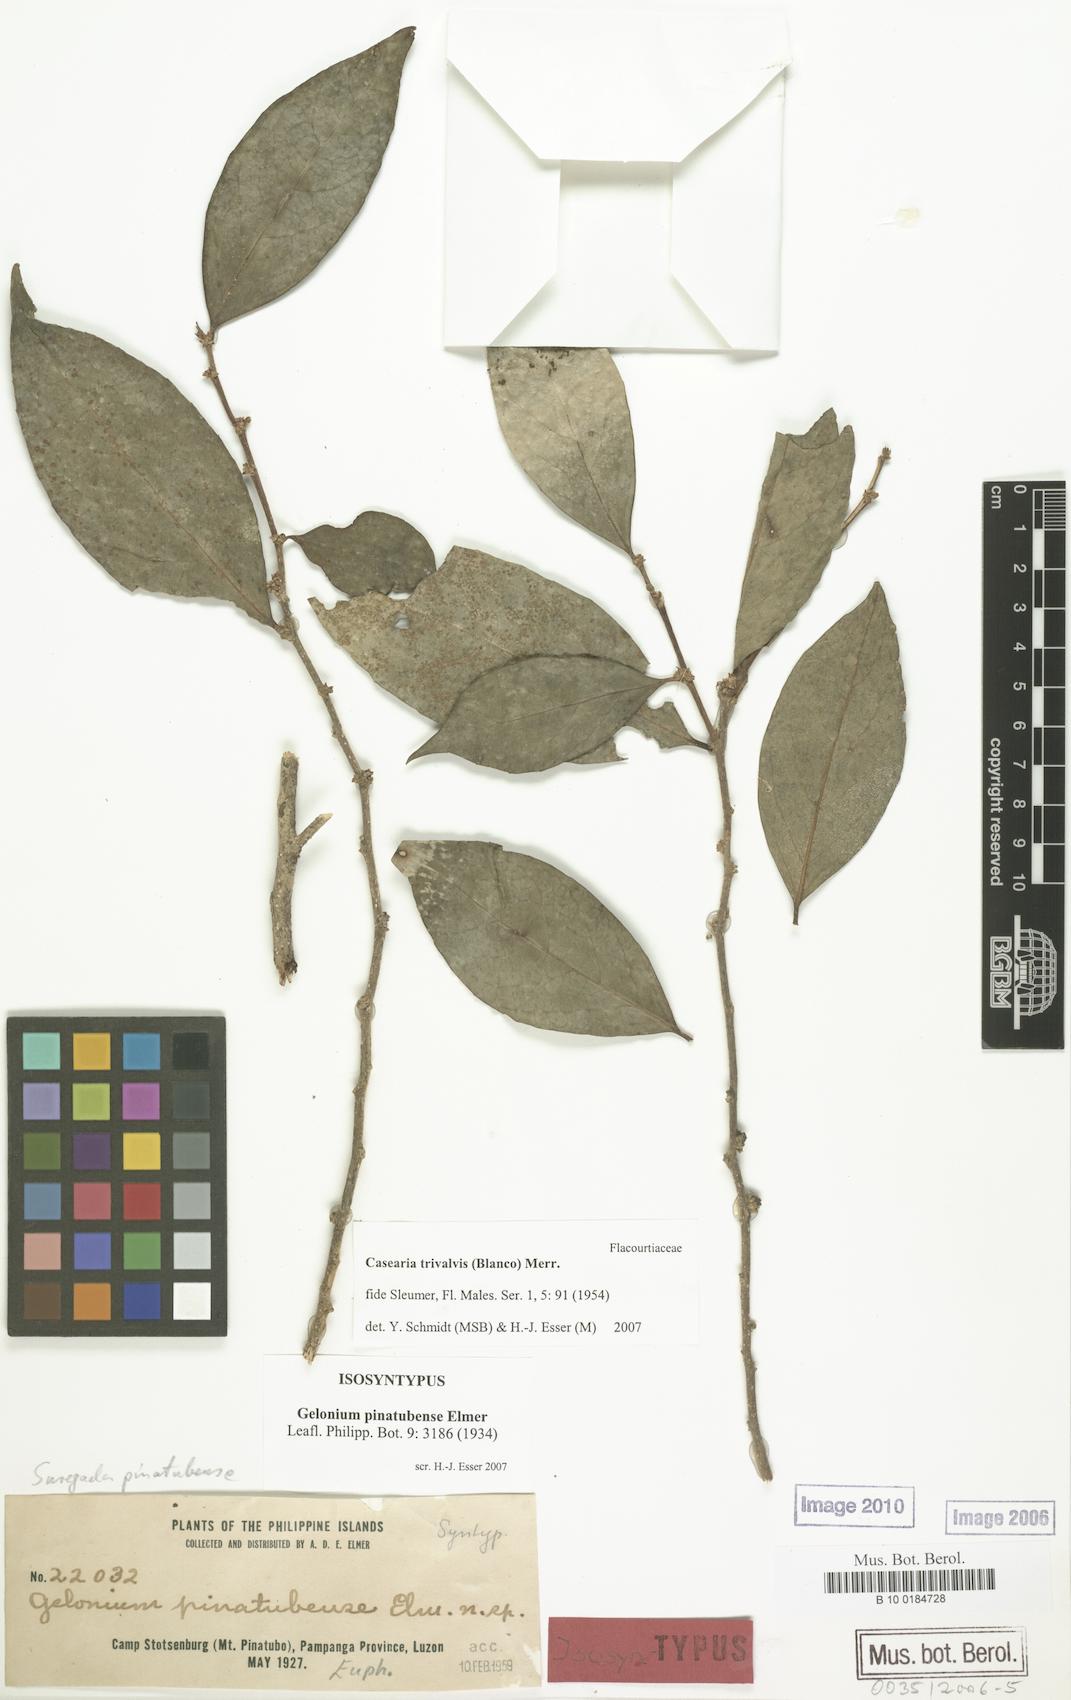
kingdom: Plantae
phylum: Tracheophyta
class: Magnoliopsida
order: Malpighiales
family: Salicaceae
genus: Casearia
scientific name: Casearia trivalvis
